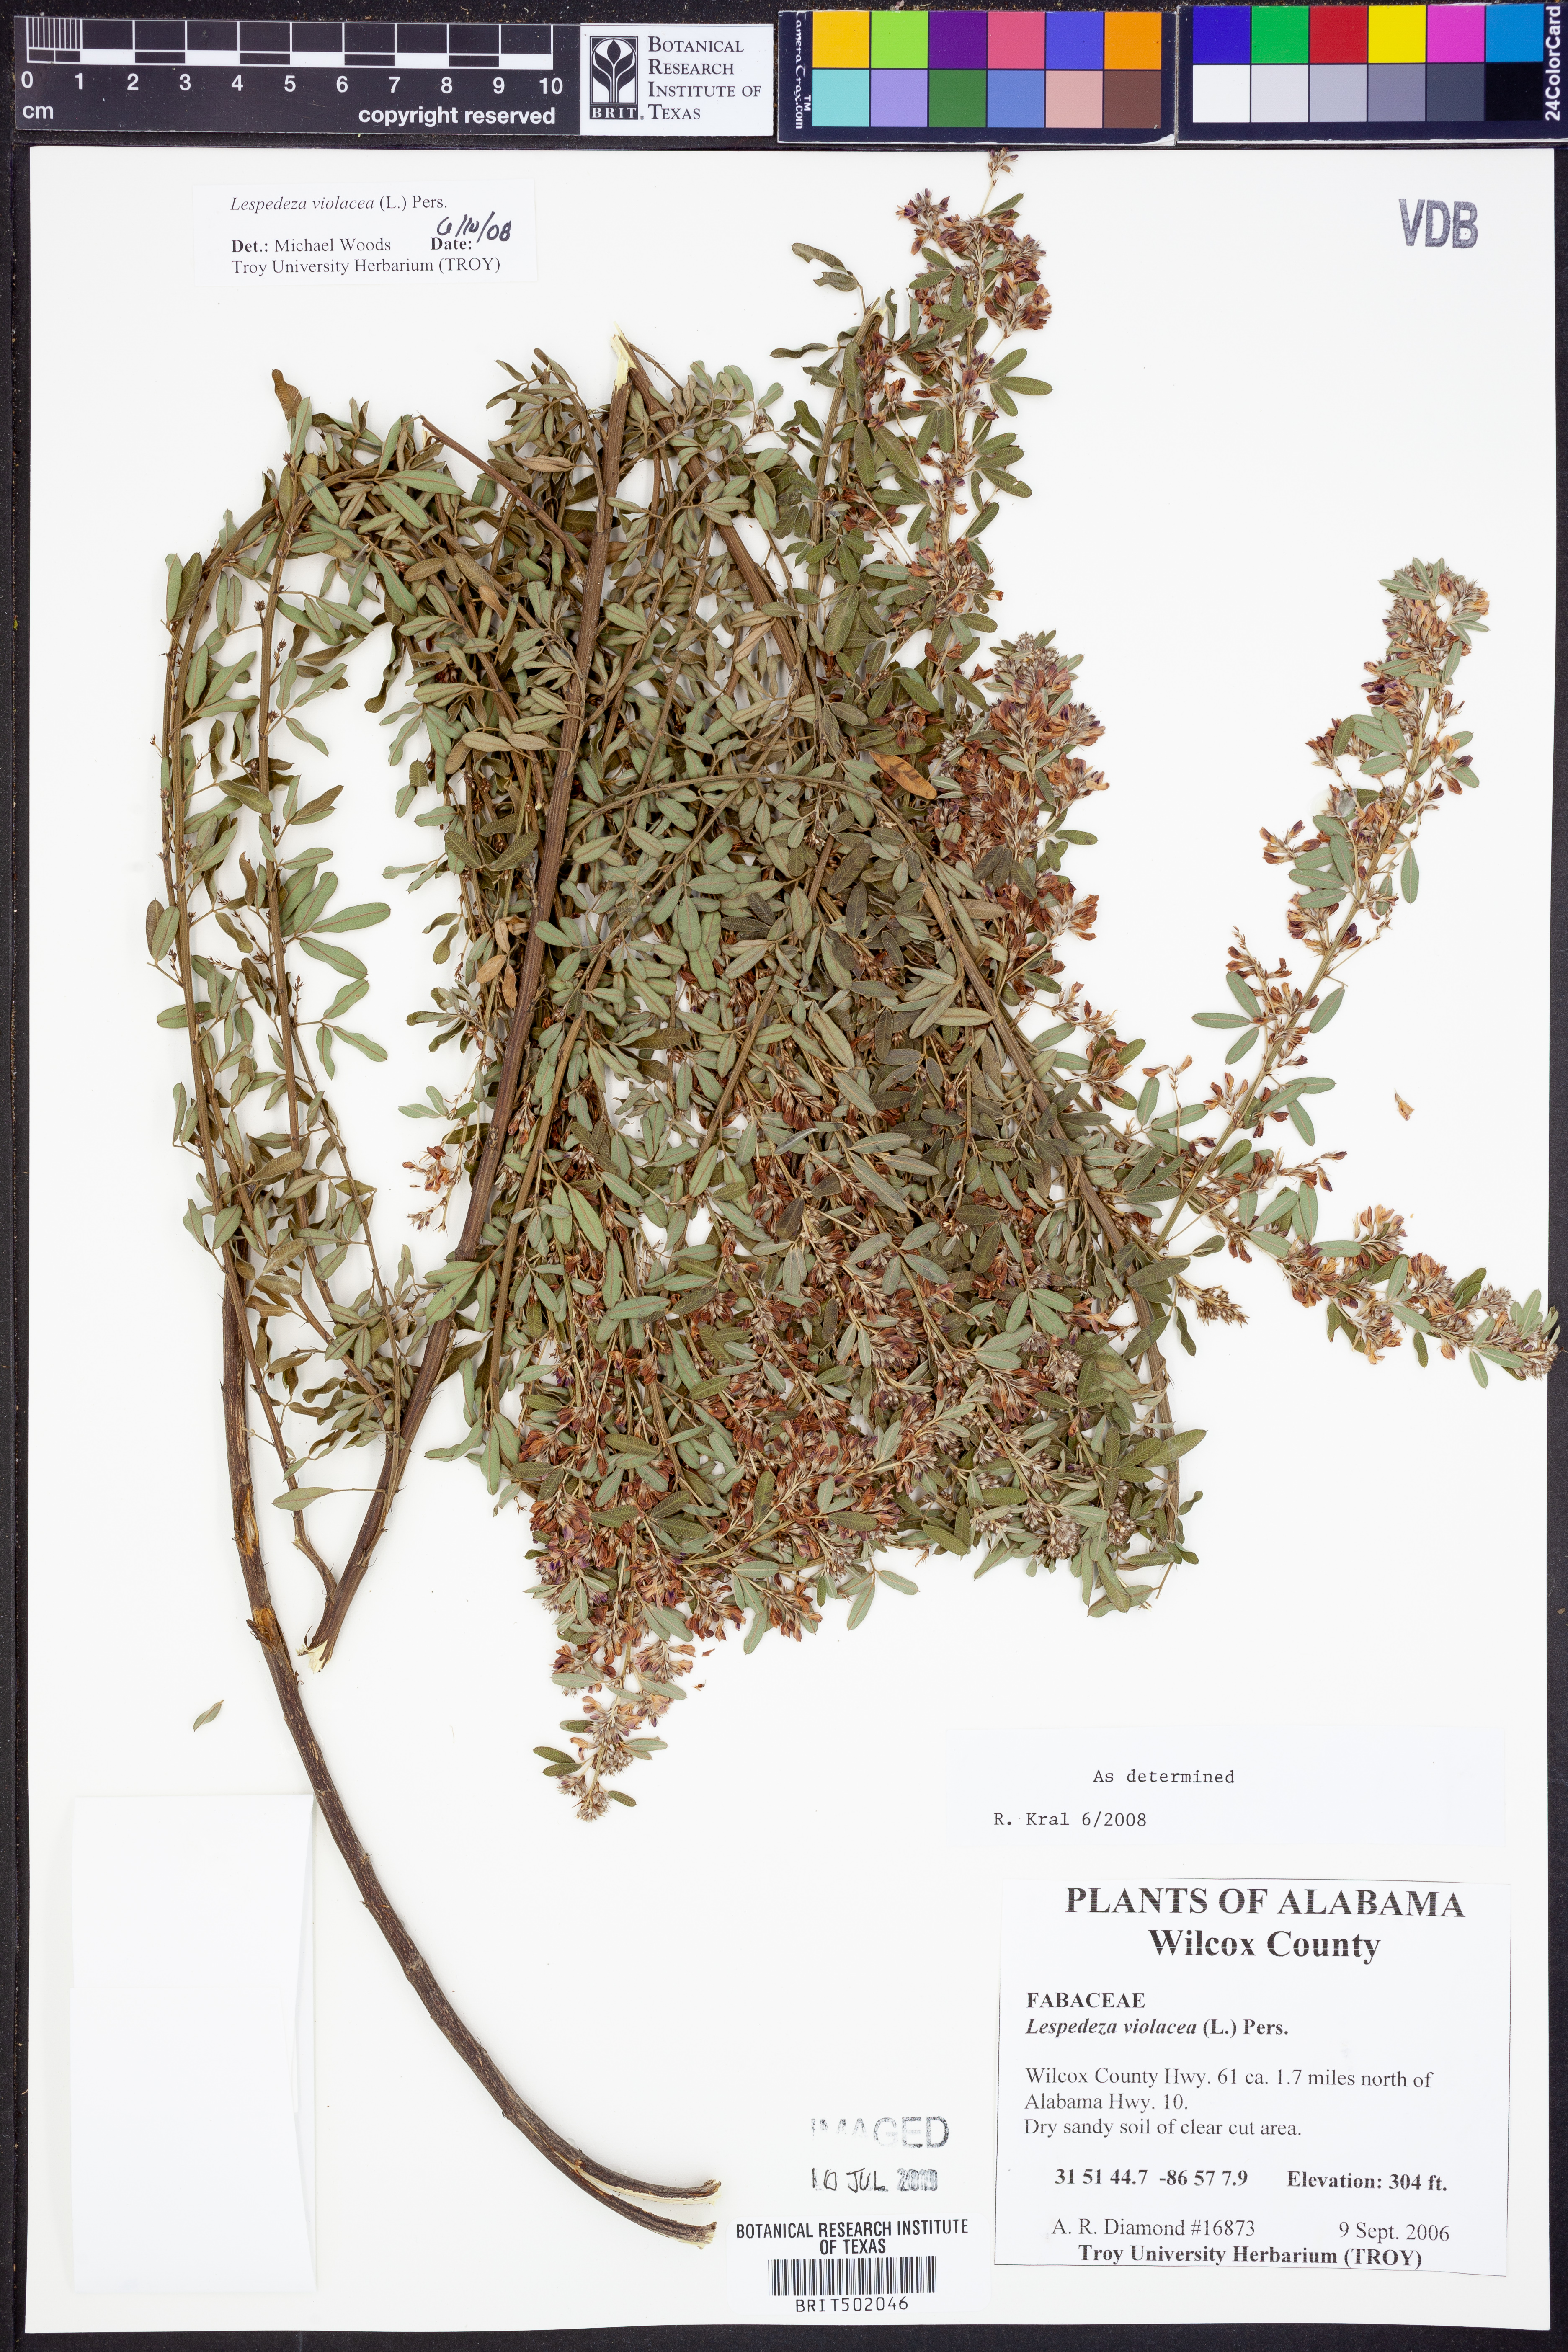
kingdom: Plantae
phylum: Tracheophyta
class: Magnoliopsida
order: Fabales
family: Fabaceae
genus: Lespedeza
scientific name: Lespedeza violacea
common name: Wand bush-clover
